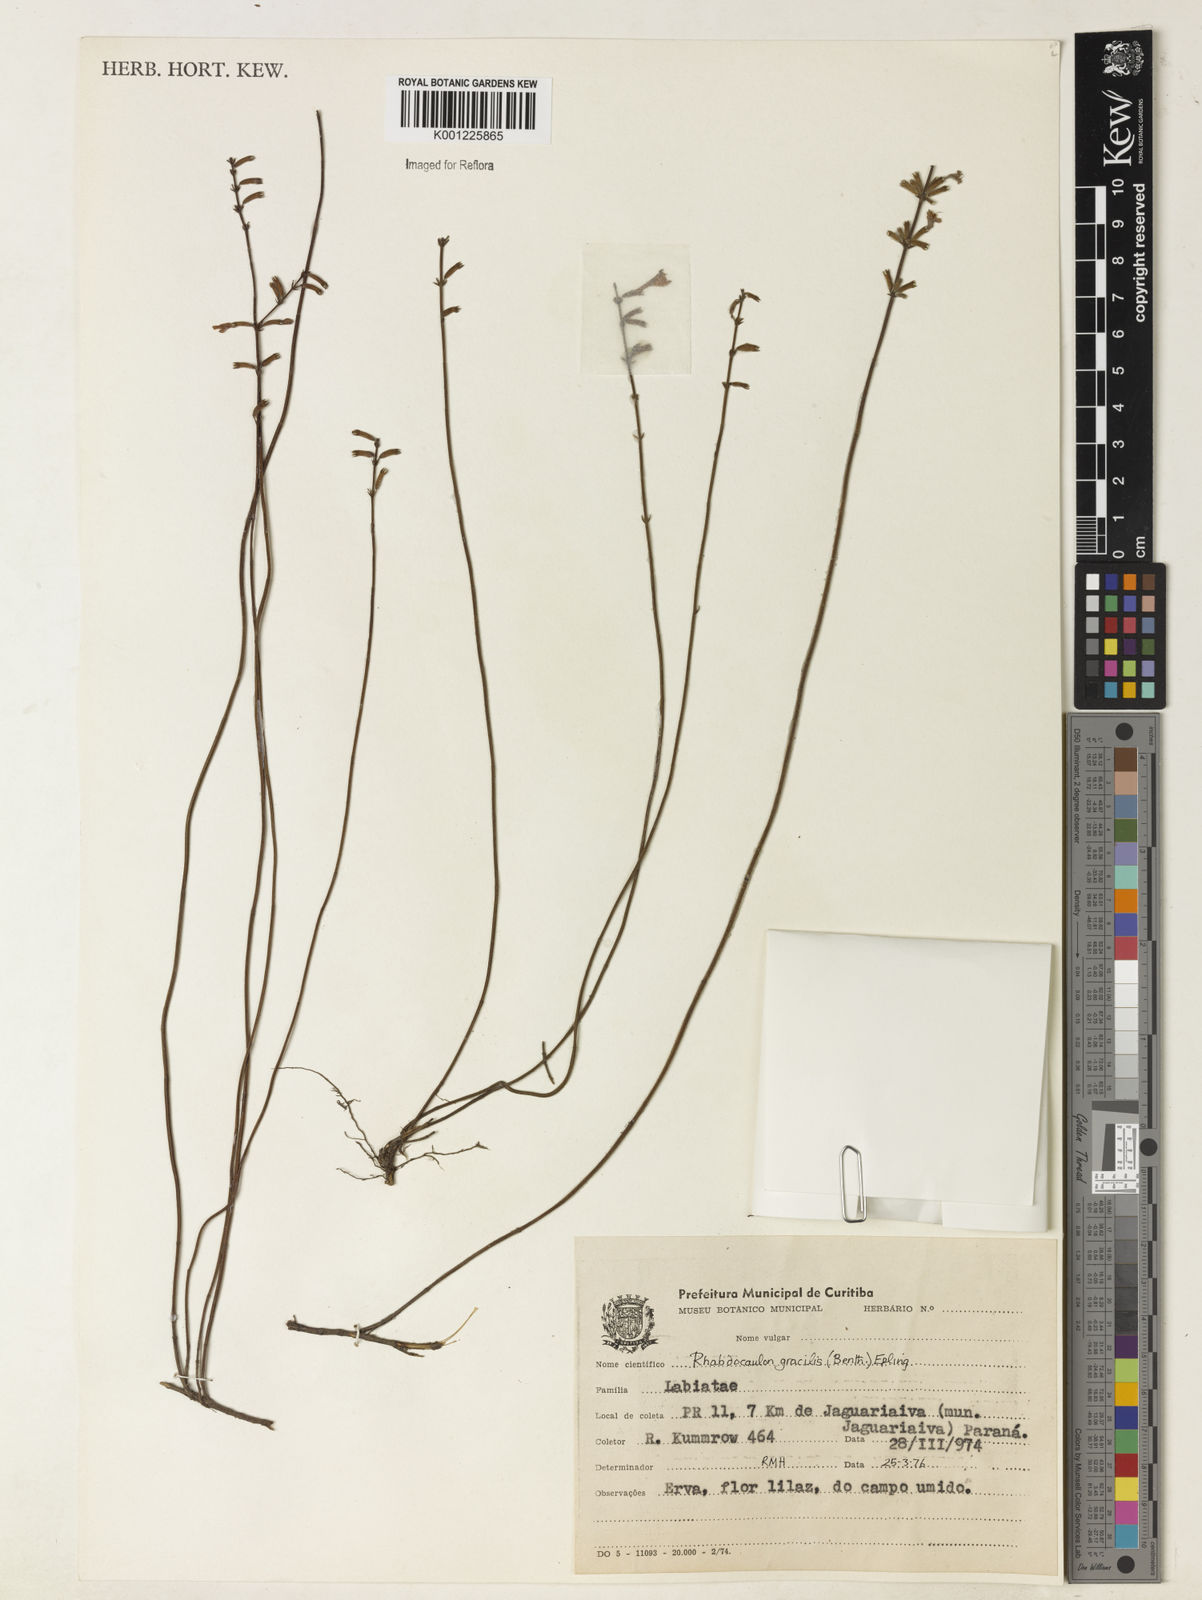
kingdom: Plantae
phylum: Tracheophyta
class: Magnoliopsida
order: Lamiales
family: Lamiaceae
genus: Rhabdocaulon
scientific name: Rhabdocaulon gracile
